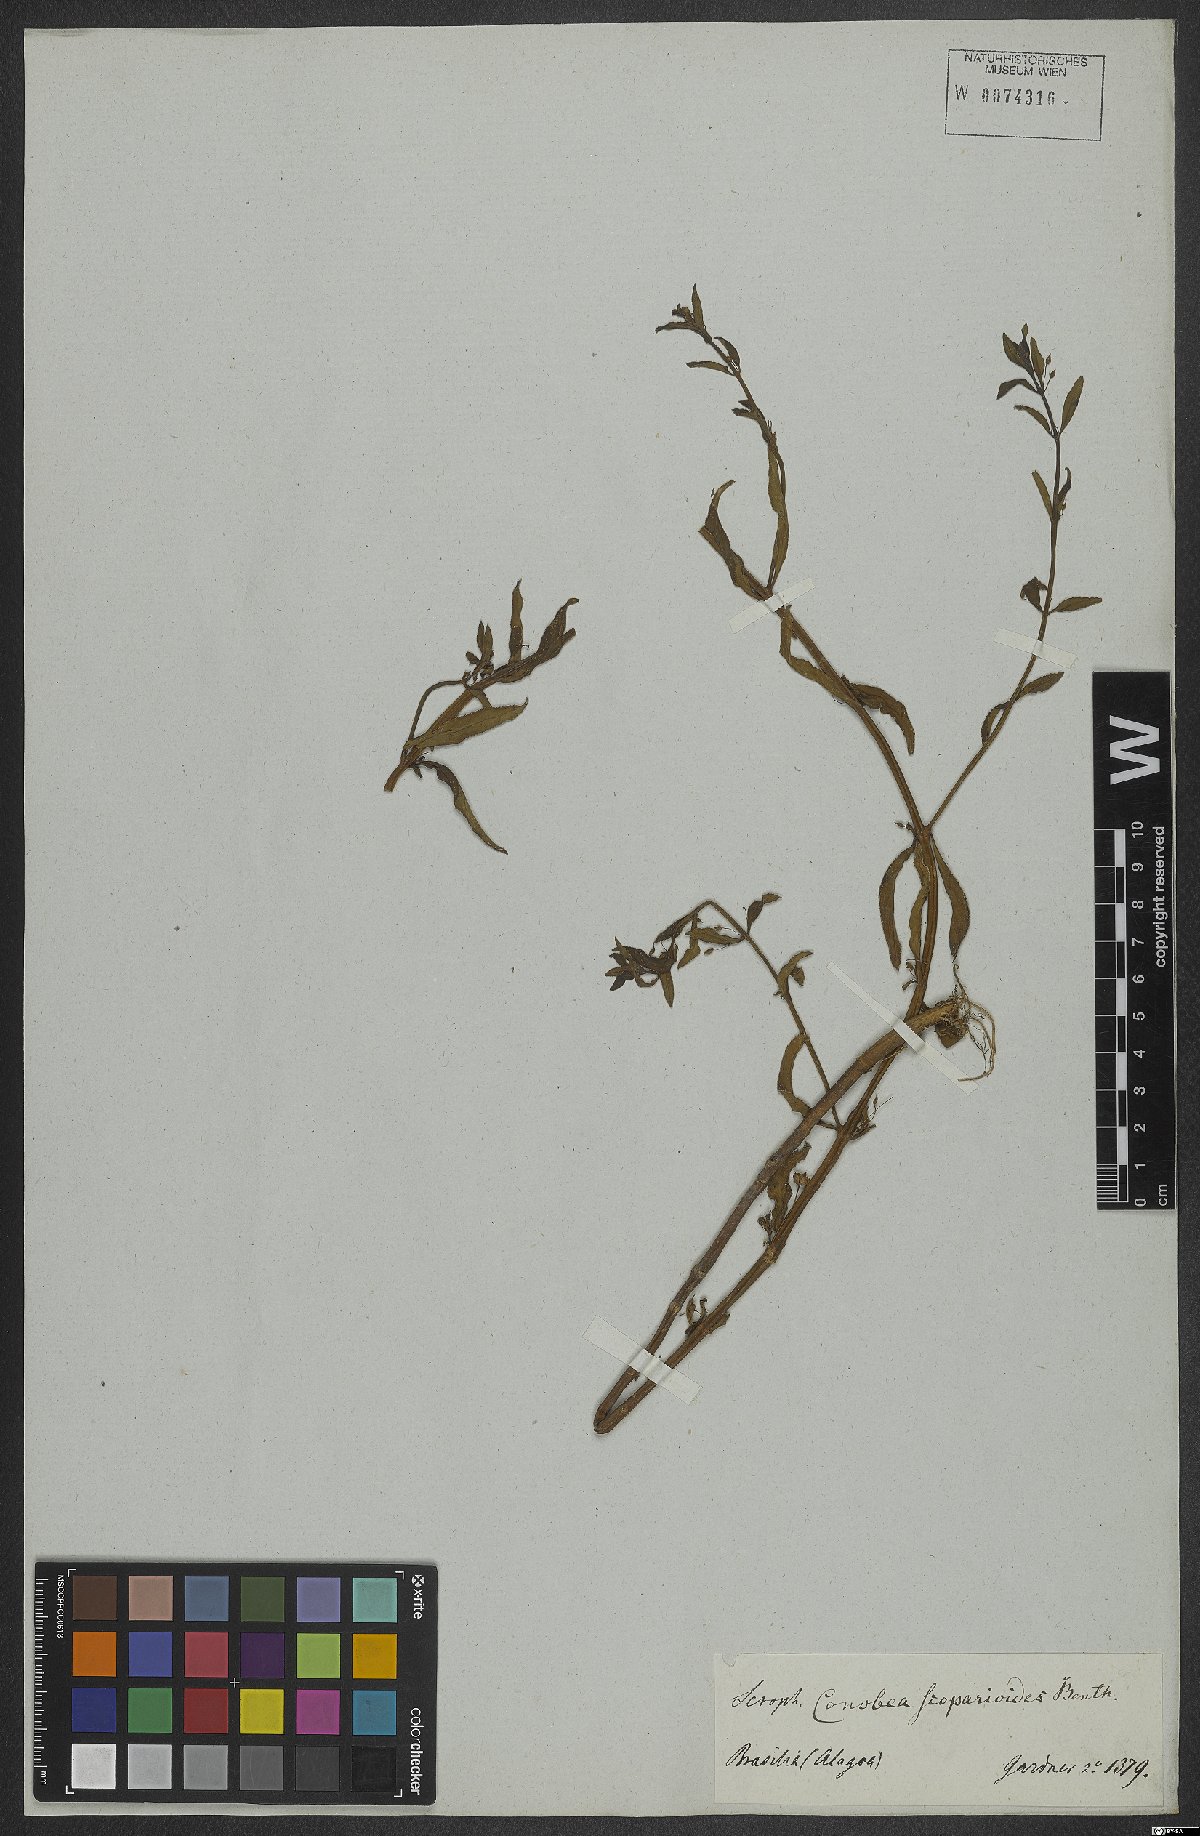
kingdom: Plantae
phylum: Tracheophyta
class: Magnoliopsida
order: Lamiales
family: Plantaginaceae
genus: Conobea
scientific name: Conobea scoparioides
